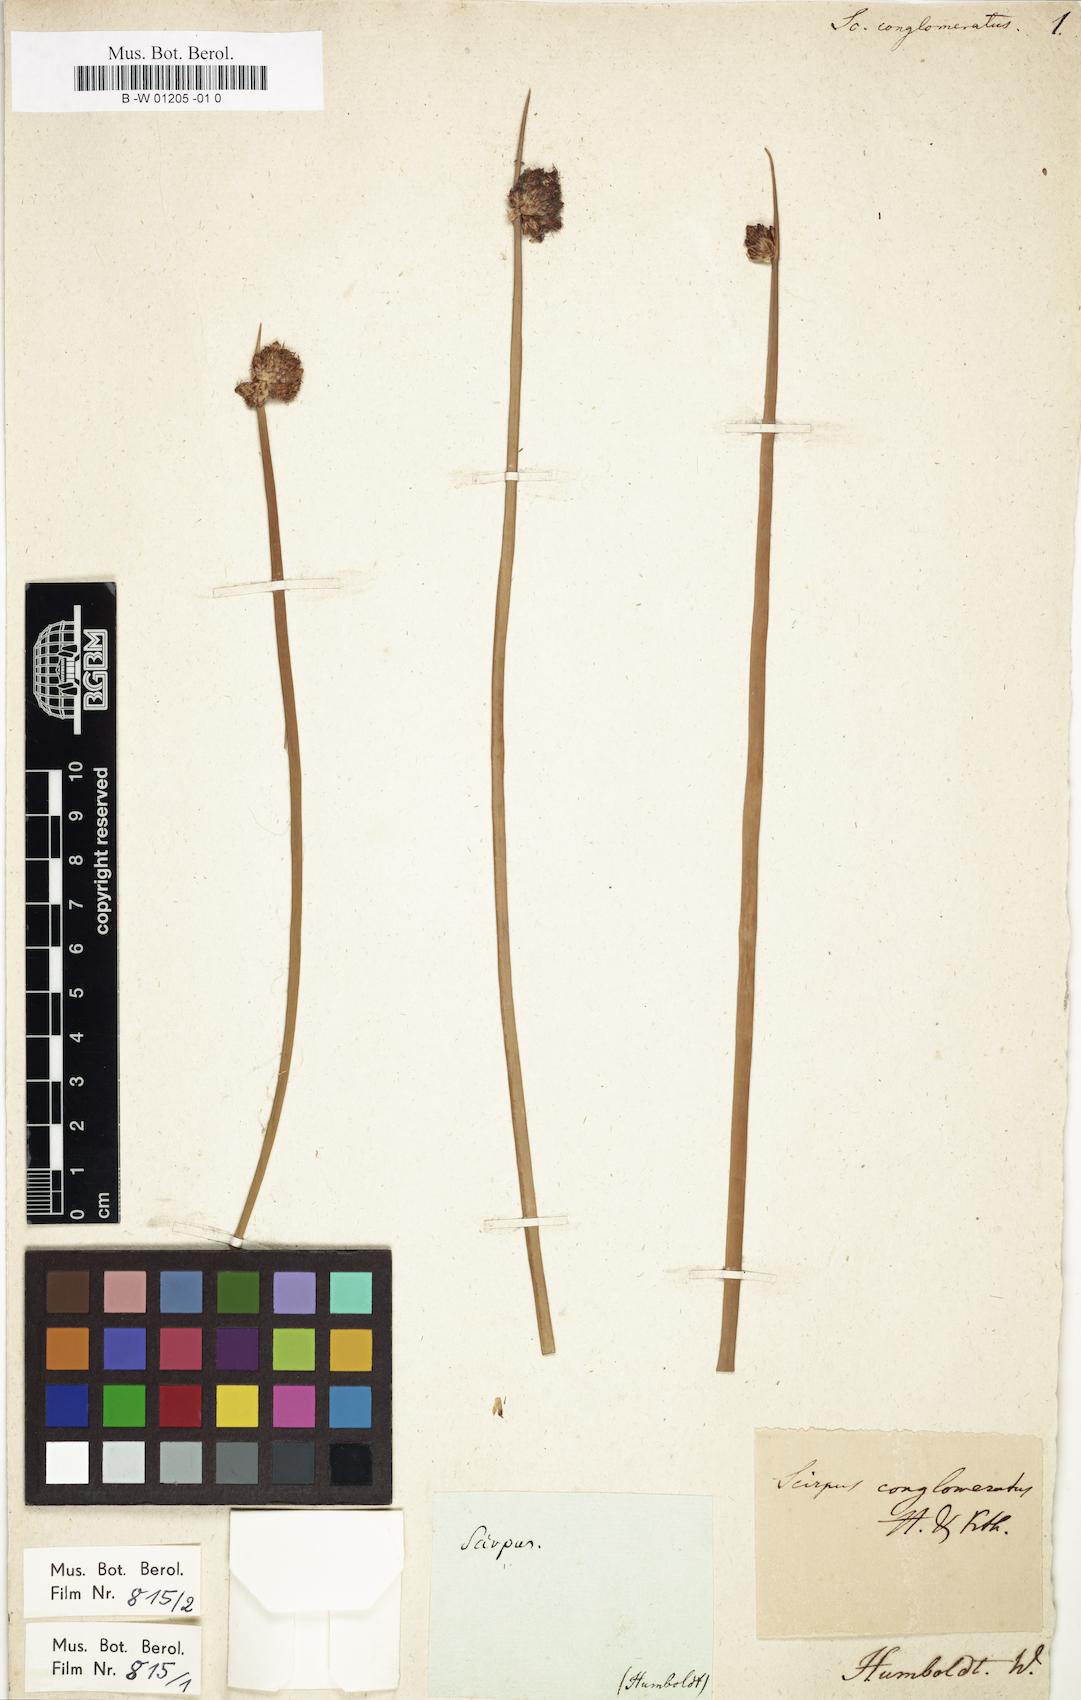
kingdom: Plantae
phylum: Tracheophyta
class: Liliopsida
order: Poales
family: Cyperaceae
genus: Schoenoplectus
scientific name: Schoenoplectus pungens
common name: Sharp club-rush
